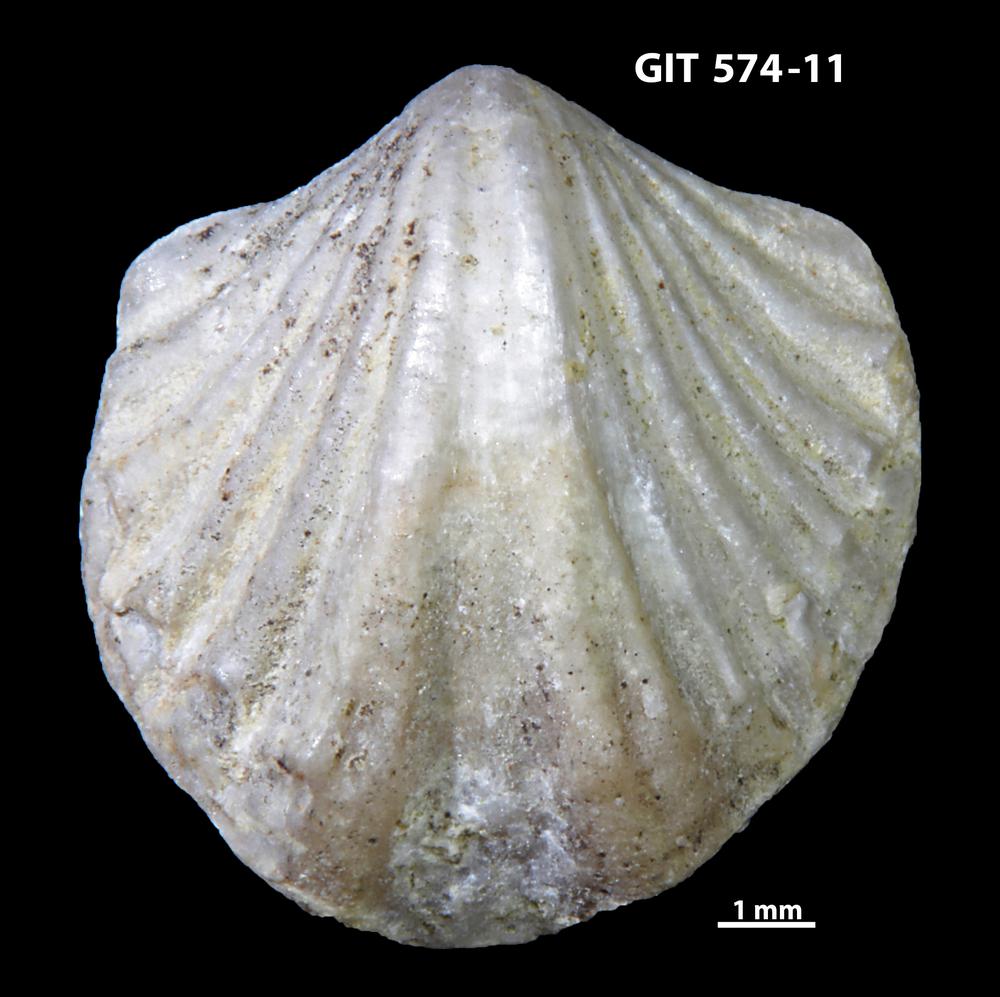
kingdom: Animalia
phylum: Brachiopoda
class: Rhynchonellata
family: Atrypinidae
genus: Eospirigerina
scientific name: Eospirigerina sulevi
